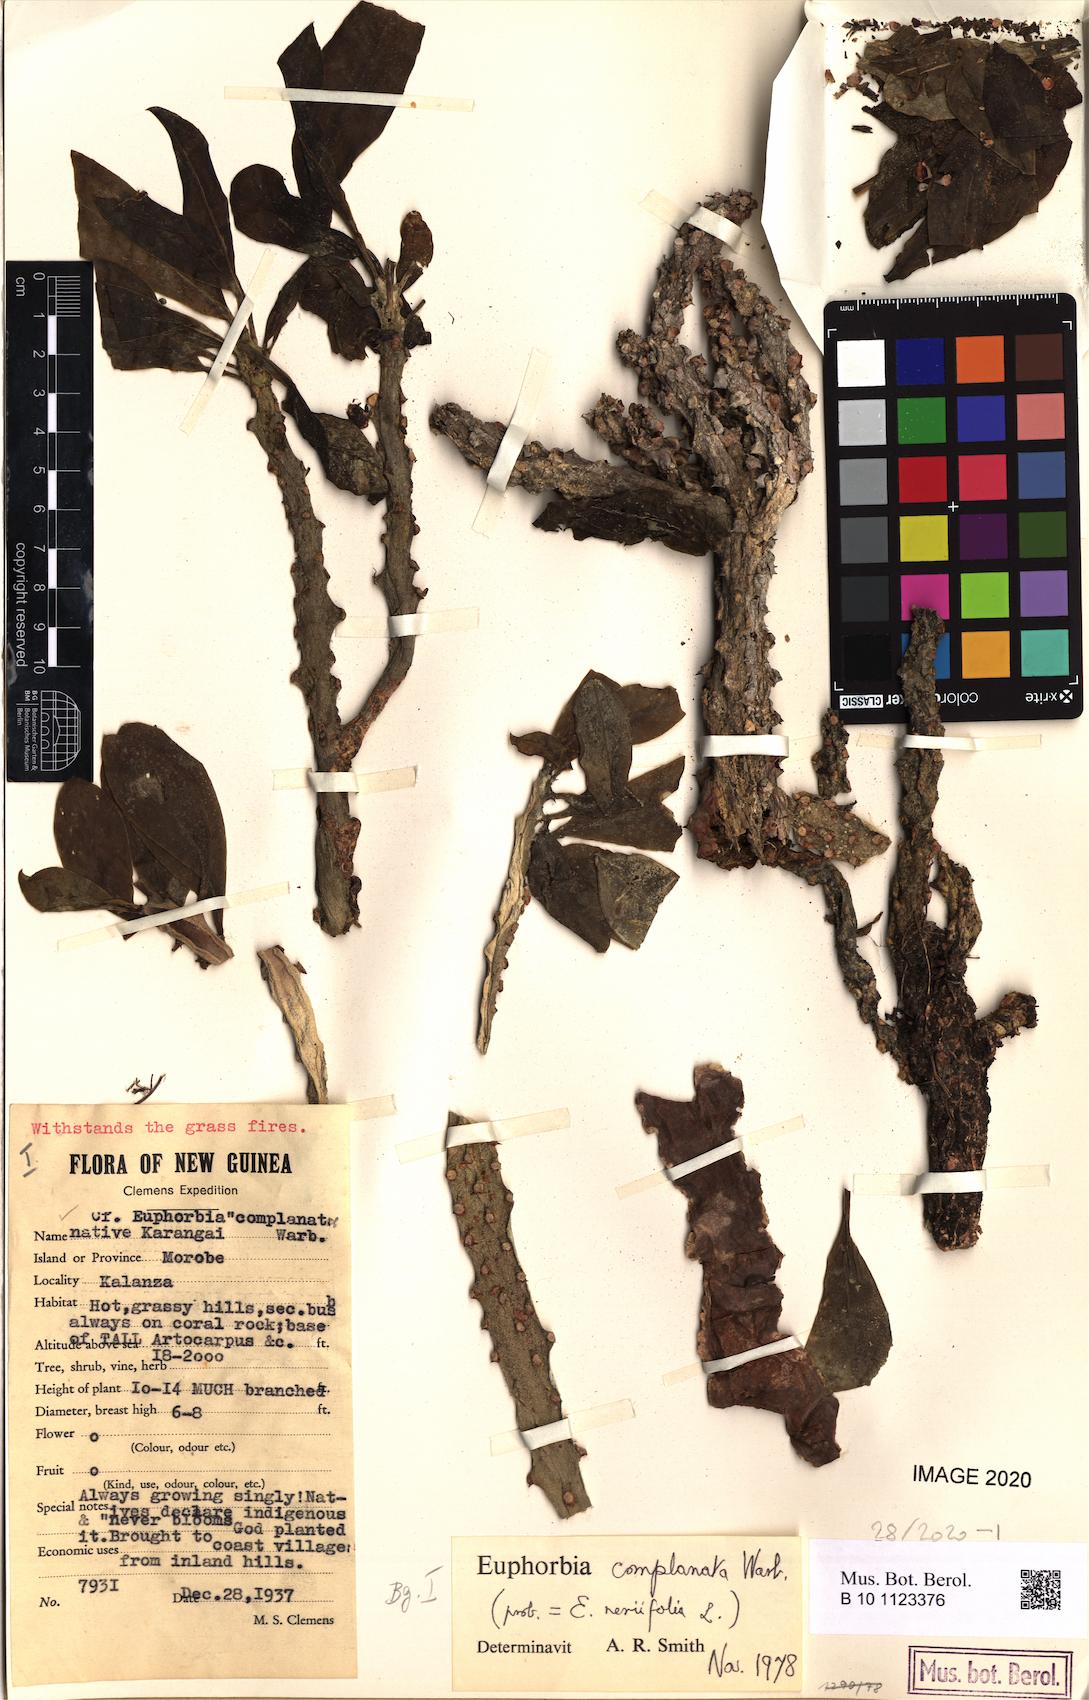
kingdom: Plantae
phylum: Tracheophyta
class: Magnoliopsida
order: Malpighiales
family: Euphorbiaceae
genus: Euphorbia
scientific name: Euphorbia complanata
